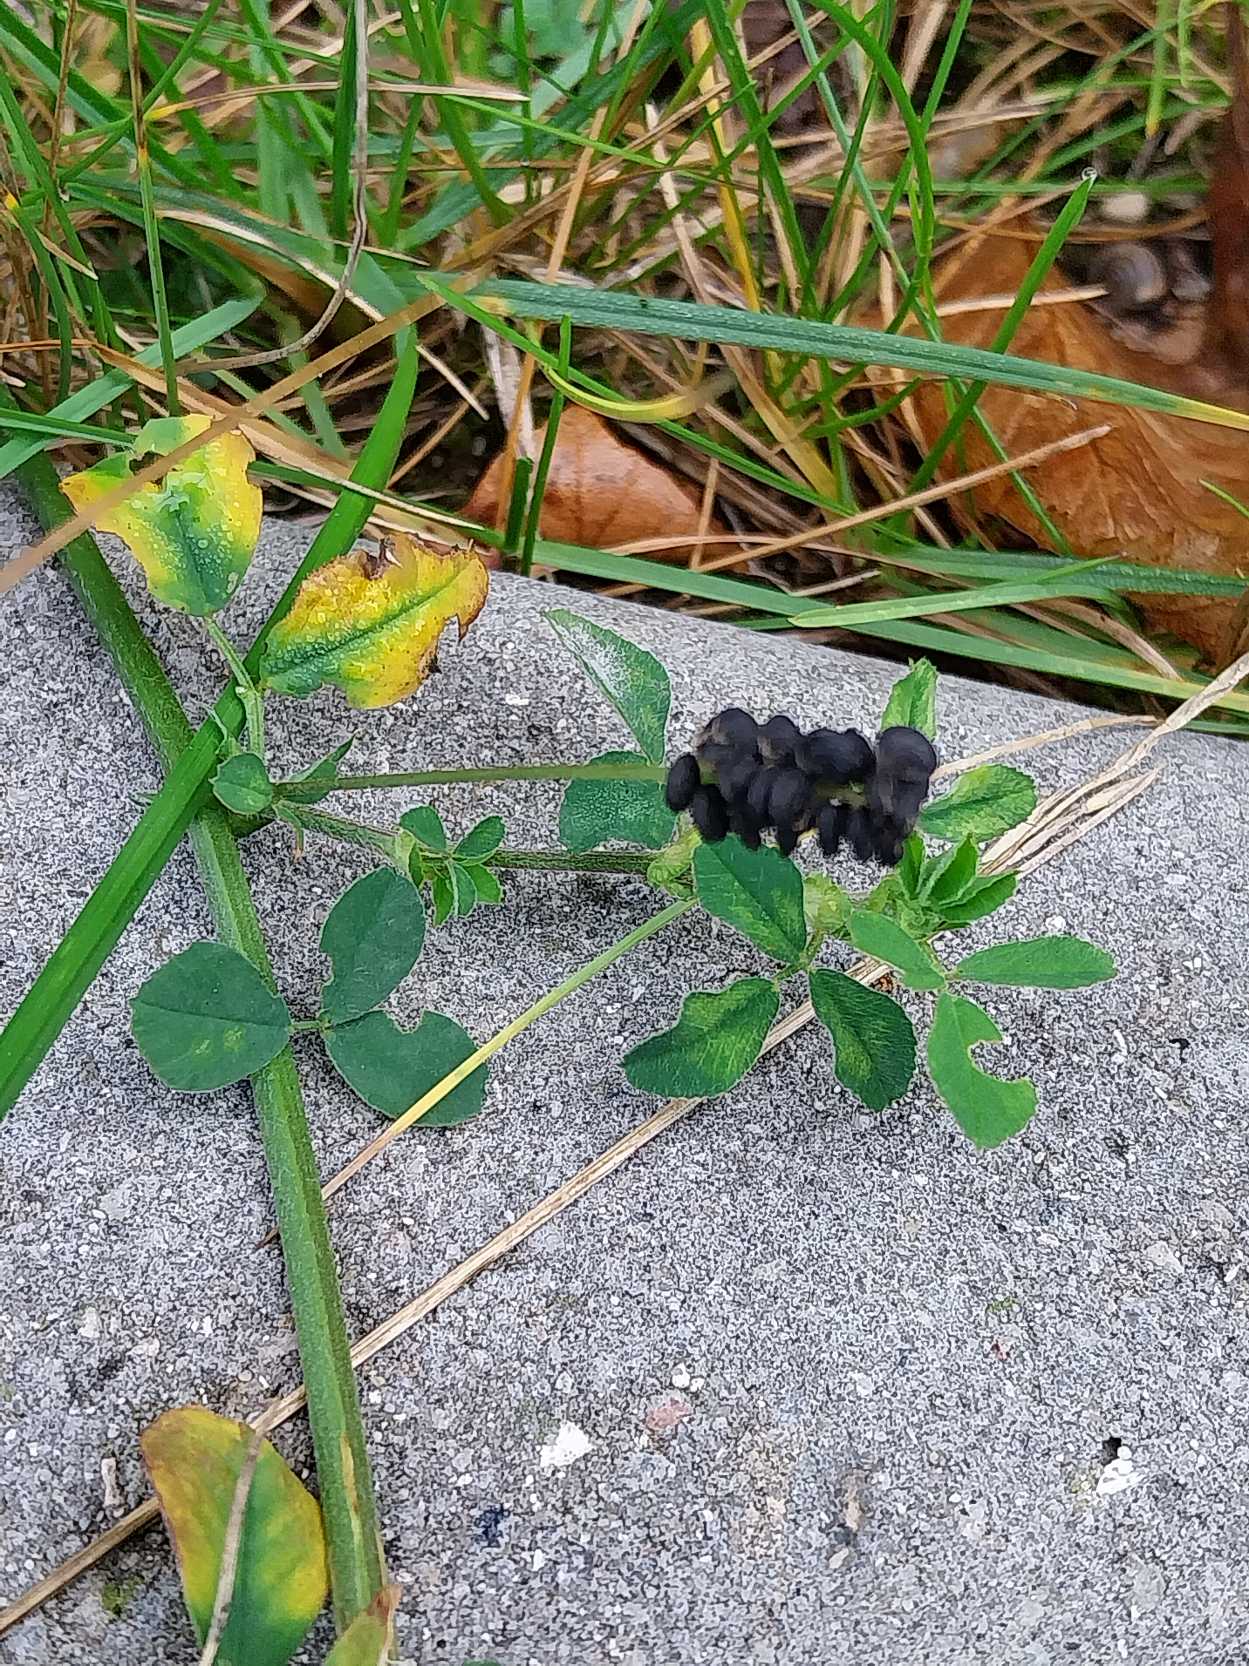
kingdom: Plantae
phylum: Tracheophyta
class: Magnoliopsida
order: Fabales
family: Fabaceae
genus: Medicago
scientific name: Medicago lupulina
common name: Humle-sneglebælg
